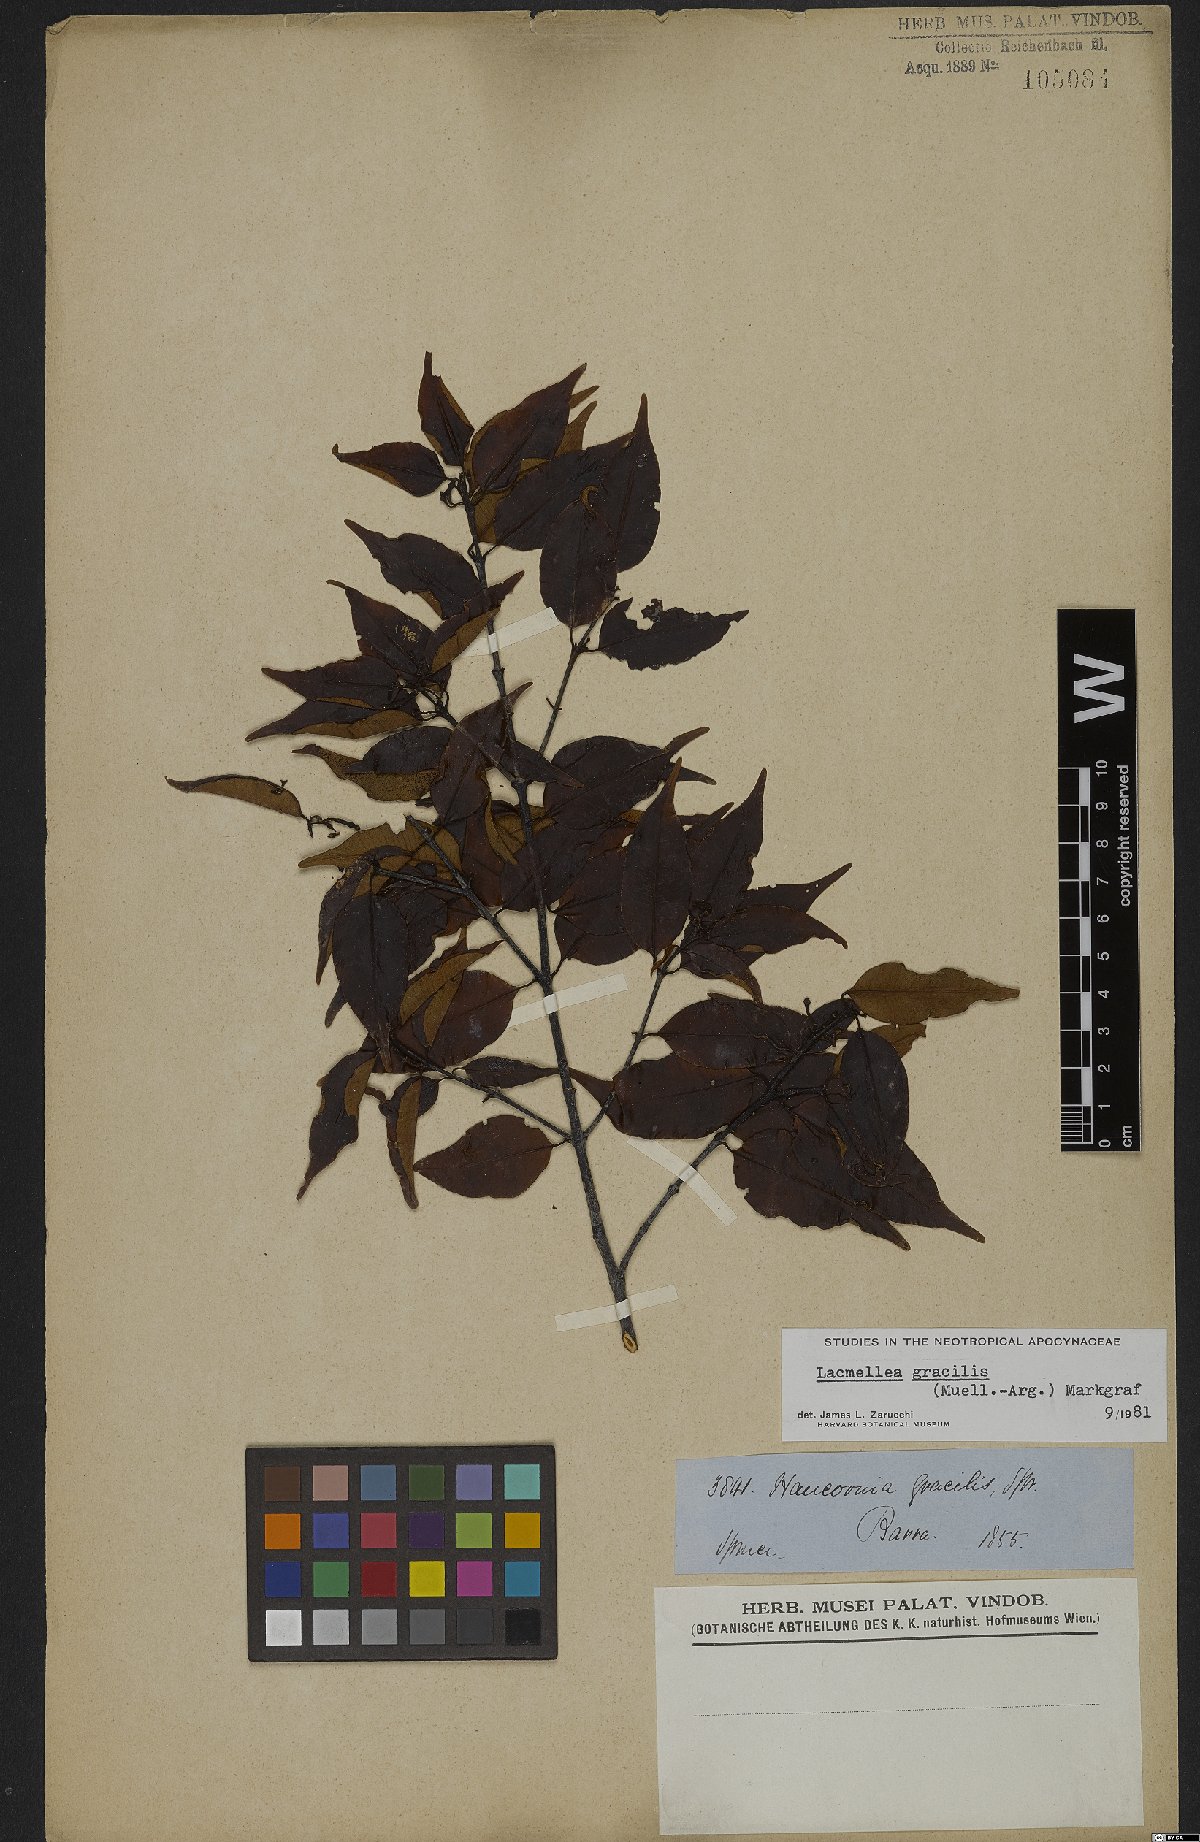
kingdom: Plantae
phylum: Tracheophyta
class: Magnoliopsida
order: Gentianales
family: Apocynaceae
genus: Lacmellea
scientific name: Lacmellea gracilis
